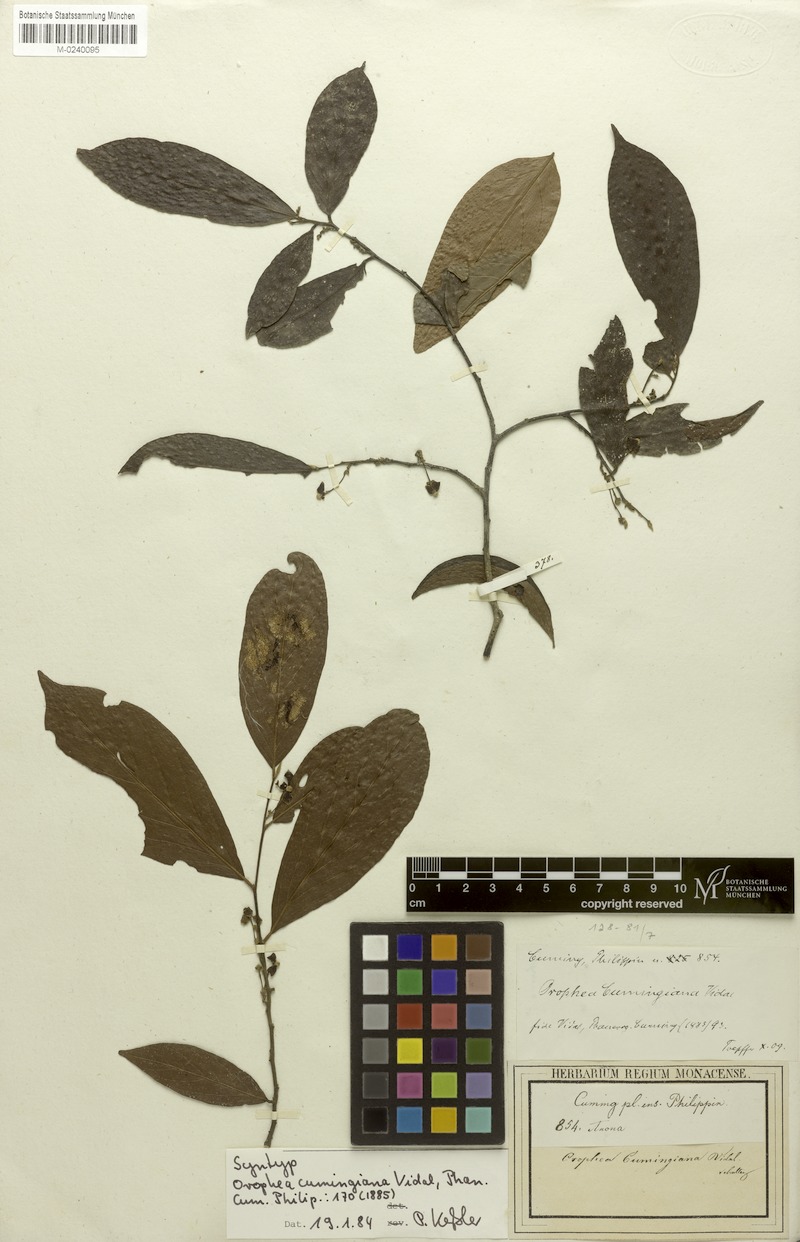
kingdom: Plantae
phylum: Tracheophyta
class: Magnoliopsida
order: Magnoliales
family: Annonaceae
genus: Orophea
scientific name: Orophea cumingiana
